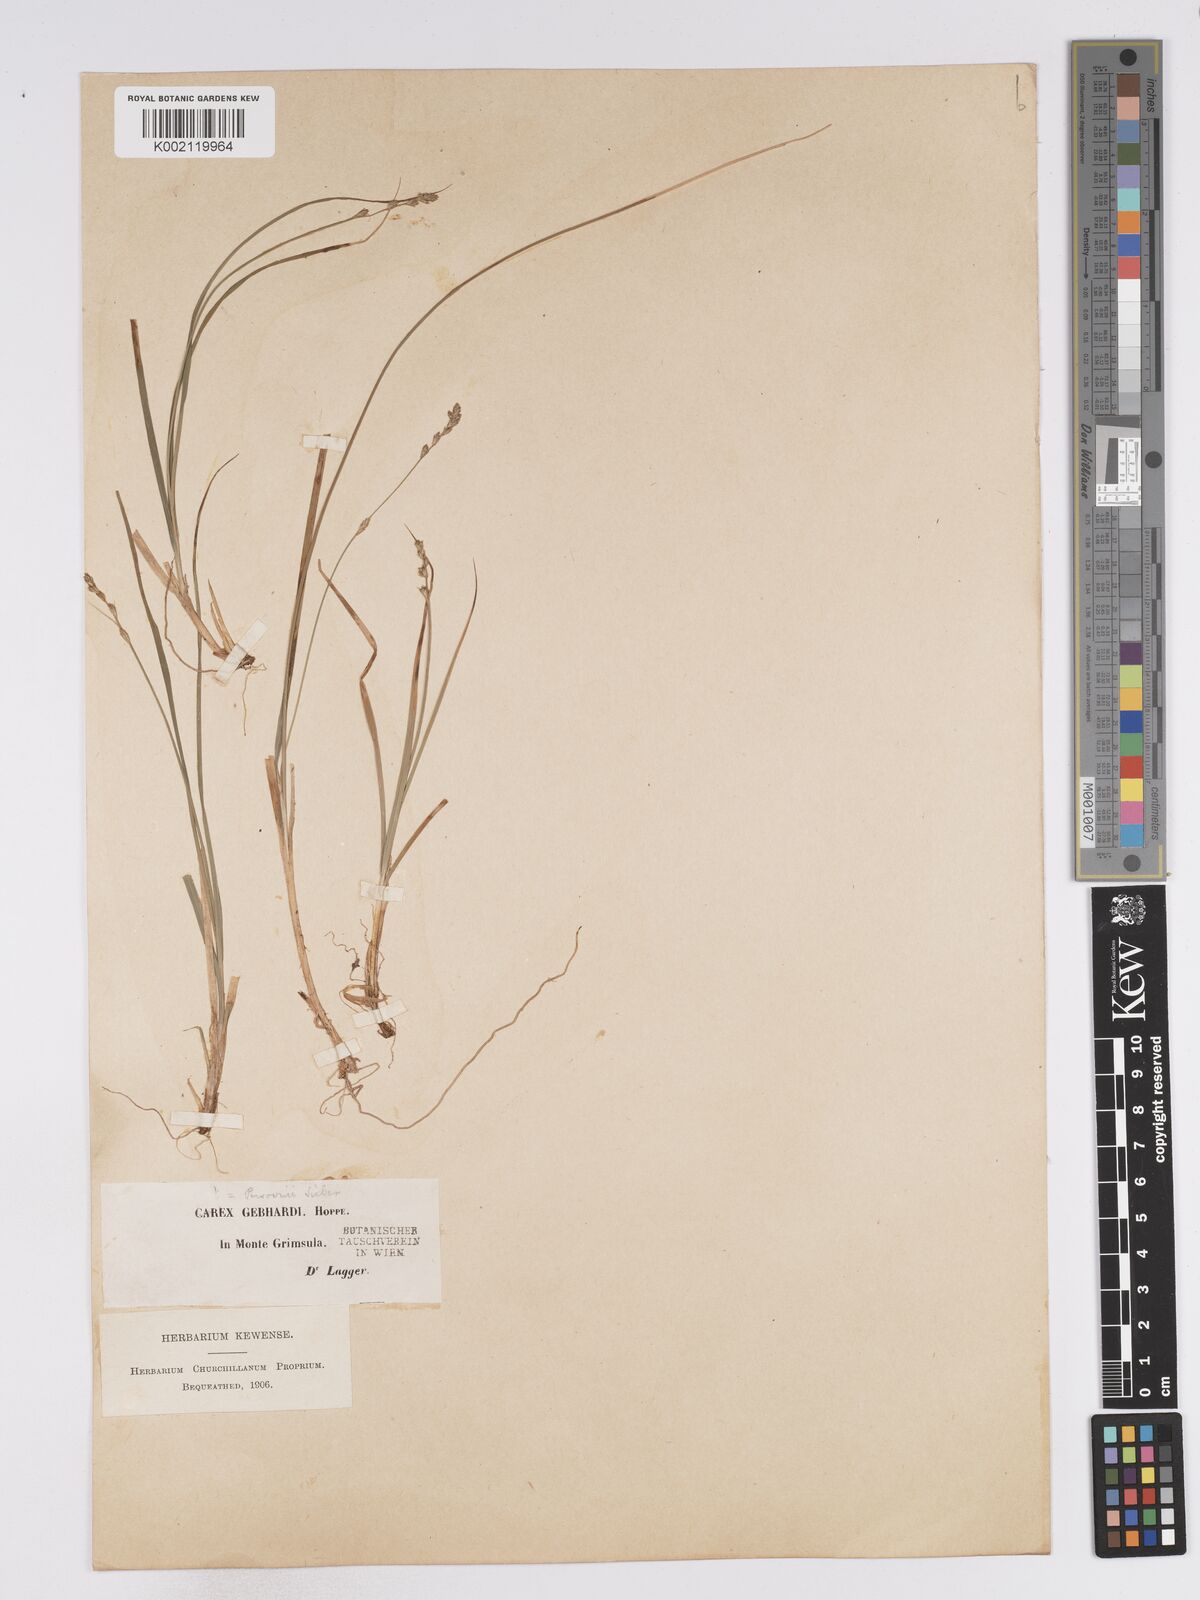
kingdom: Plantae
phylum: Tracheophyta
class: Liliopsida
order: Poales
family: Cyperaceae
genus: Carex
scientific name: Carex canescens
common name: White sedge
